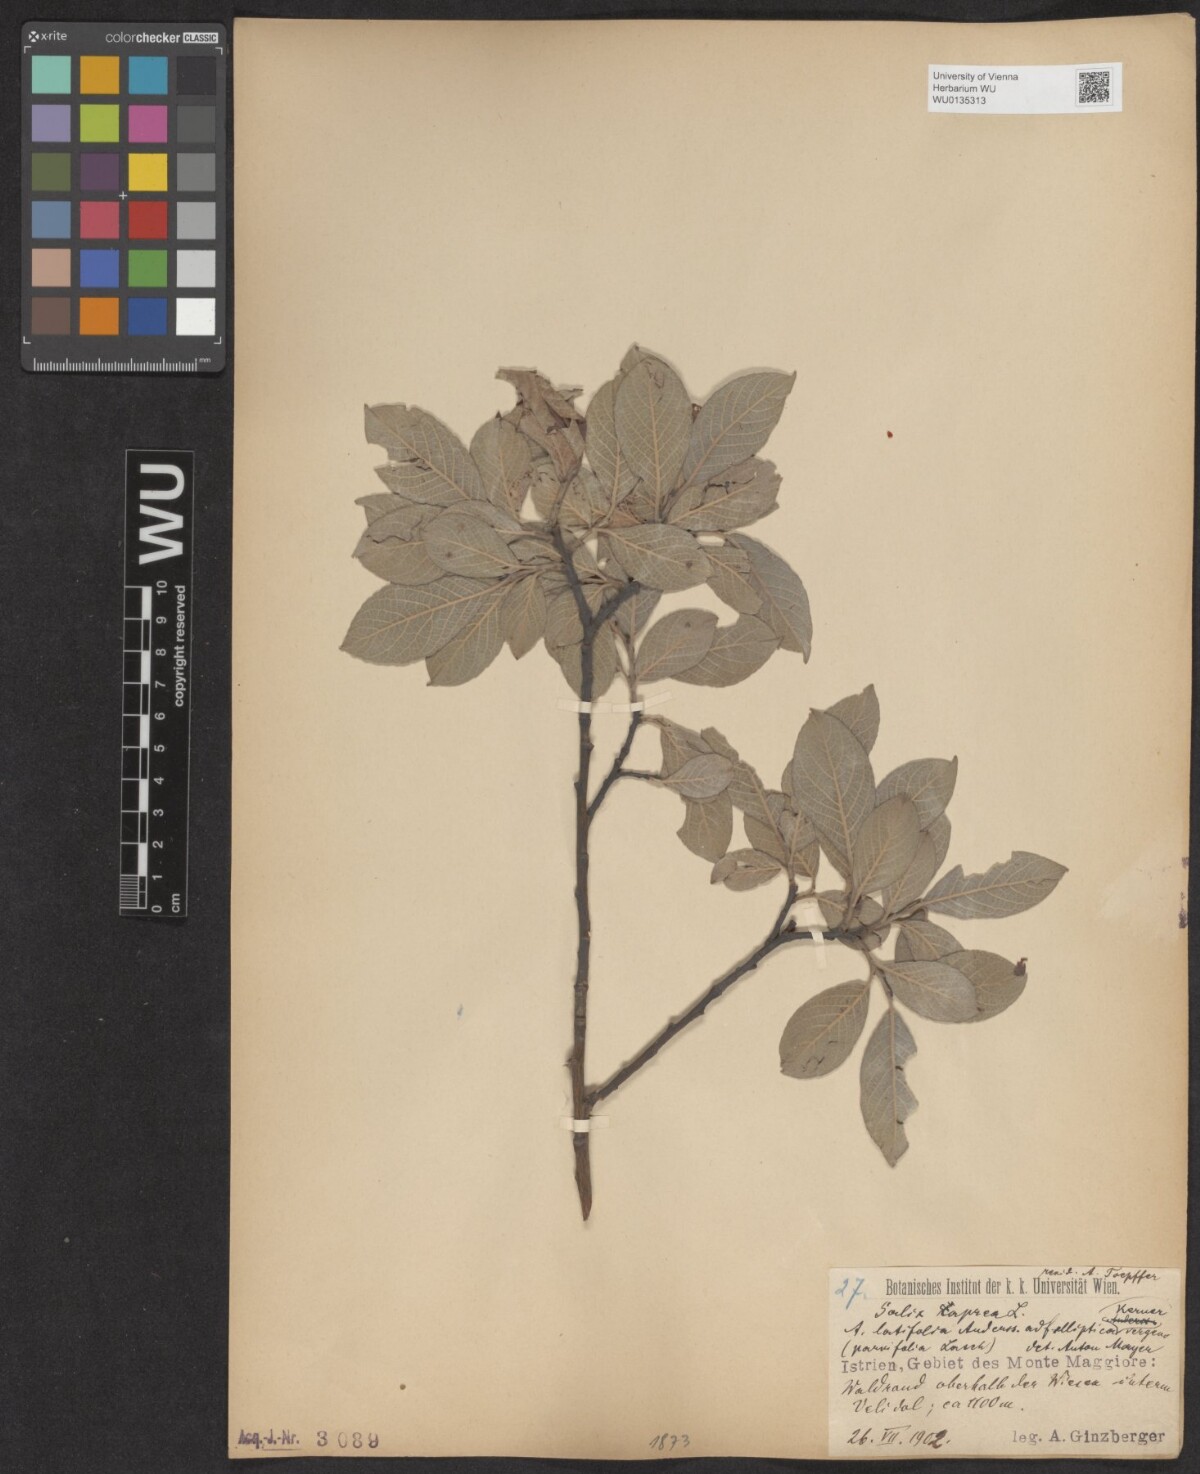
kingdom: Plantae
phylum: Tracheophyta
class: Magnoliopsida
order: Malpighiales
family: Salicaceae
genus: Salix
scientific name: Salix caprea
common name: Goat willow
